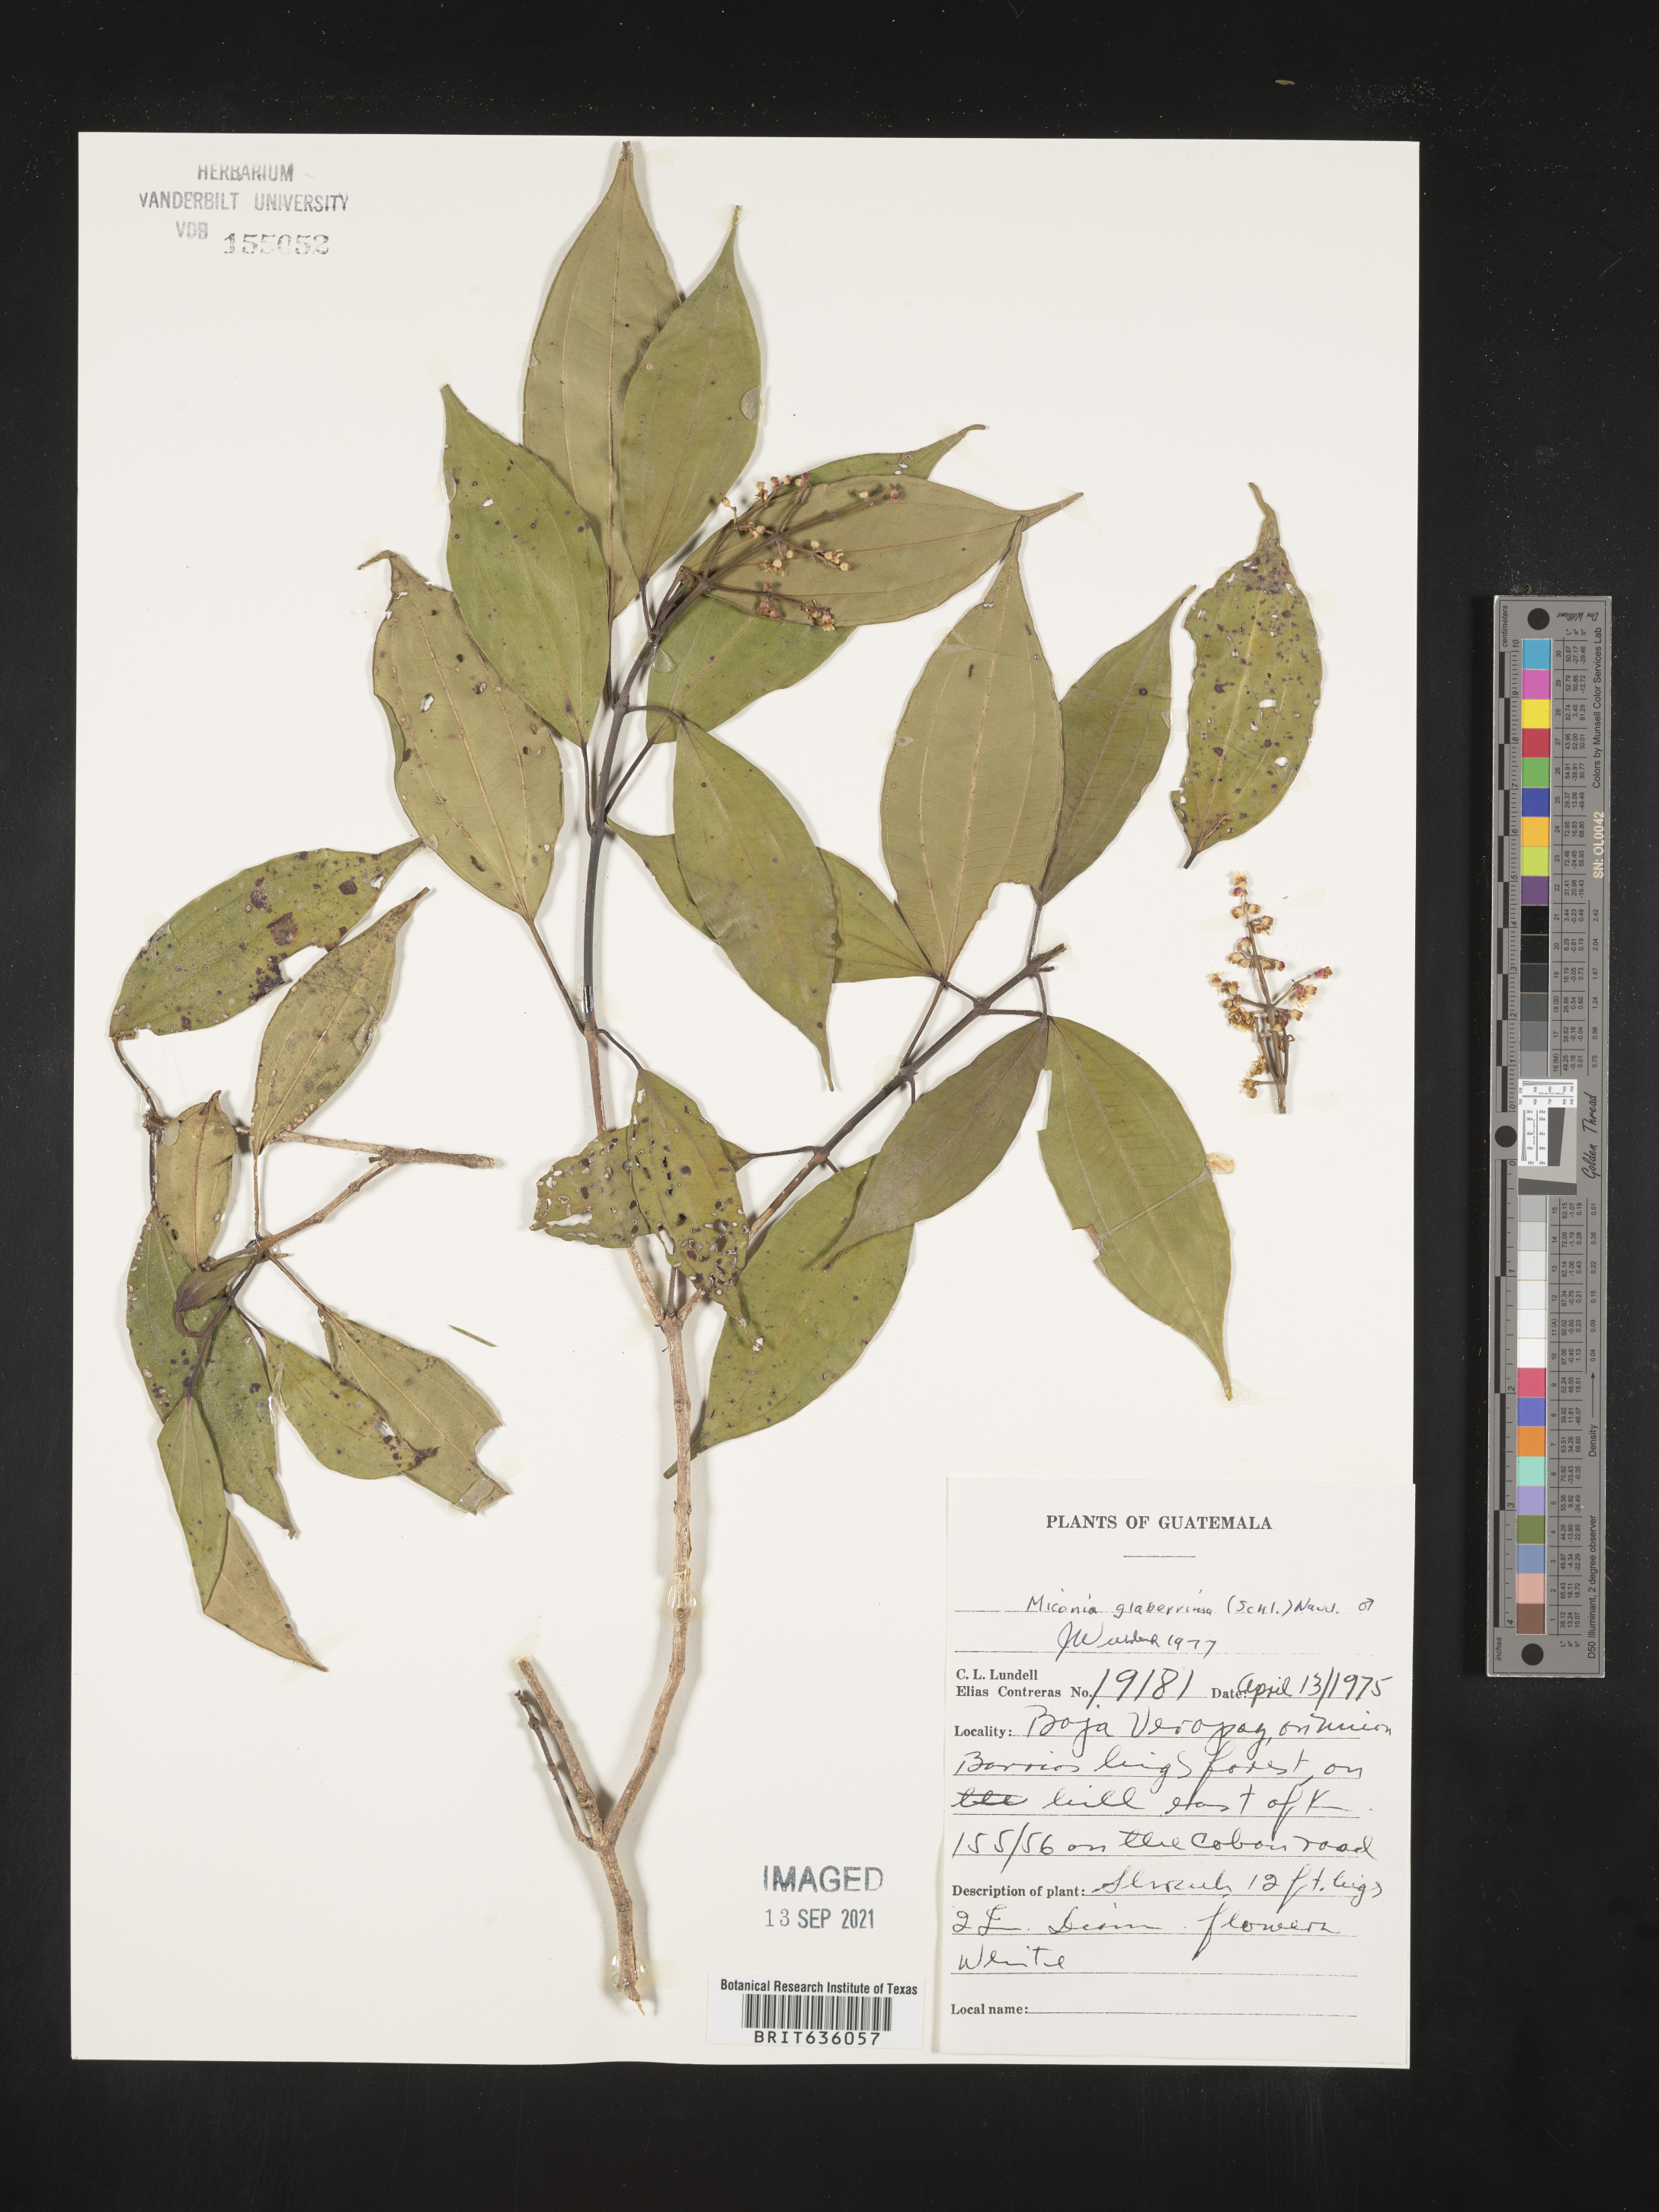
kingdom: Plantae
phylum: Tracheophyta
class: Magnoliopsida
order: Myrtales
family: Melastomataceae
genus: Miconia
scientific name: Miconia
